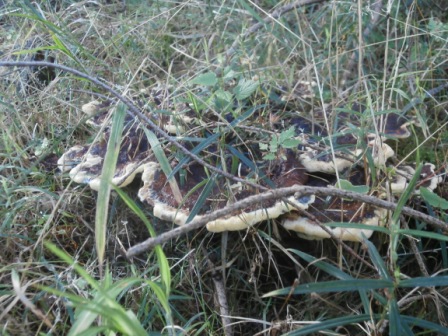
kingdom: Fungi
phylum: Basidiomycota
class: Agaricomycetes
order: Polyporales
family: Laetiporaceae
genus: Phaeolus
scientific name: Phaeolus schweinitzii
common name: brunporesvamp
